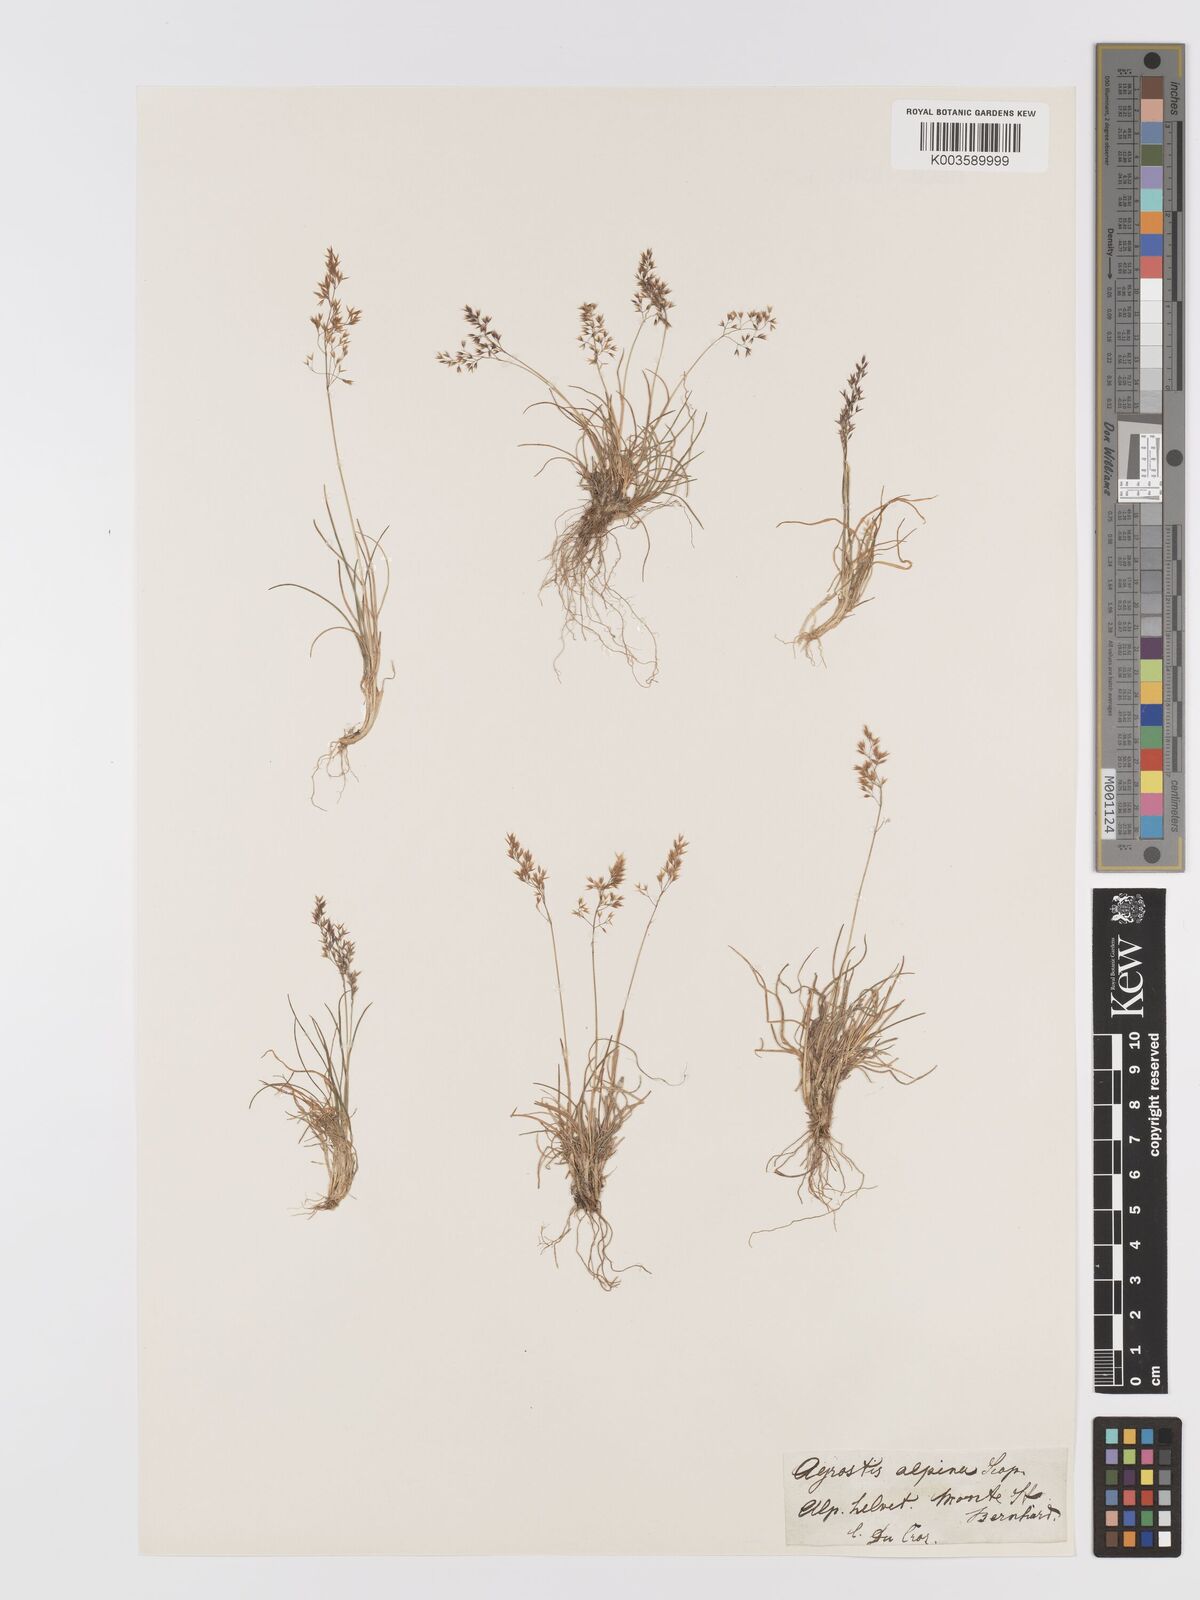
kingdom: Plantae
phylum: Tracheophyta
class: Liliopsida
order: Poales
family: Poaceae
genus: Alpagrostis
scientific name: Alpagrostis alpina
